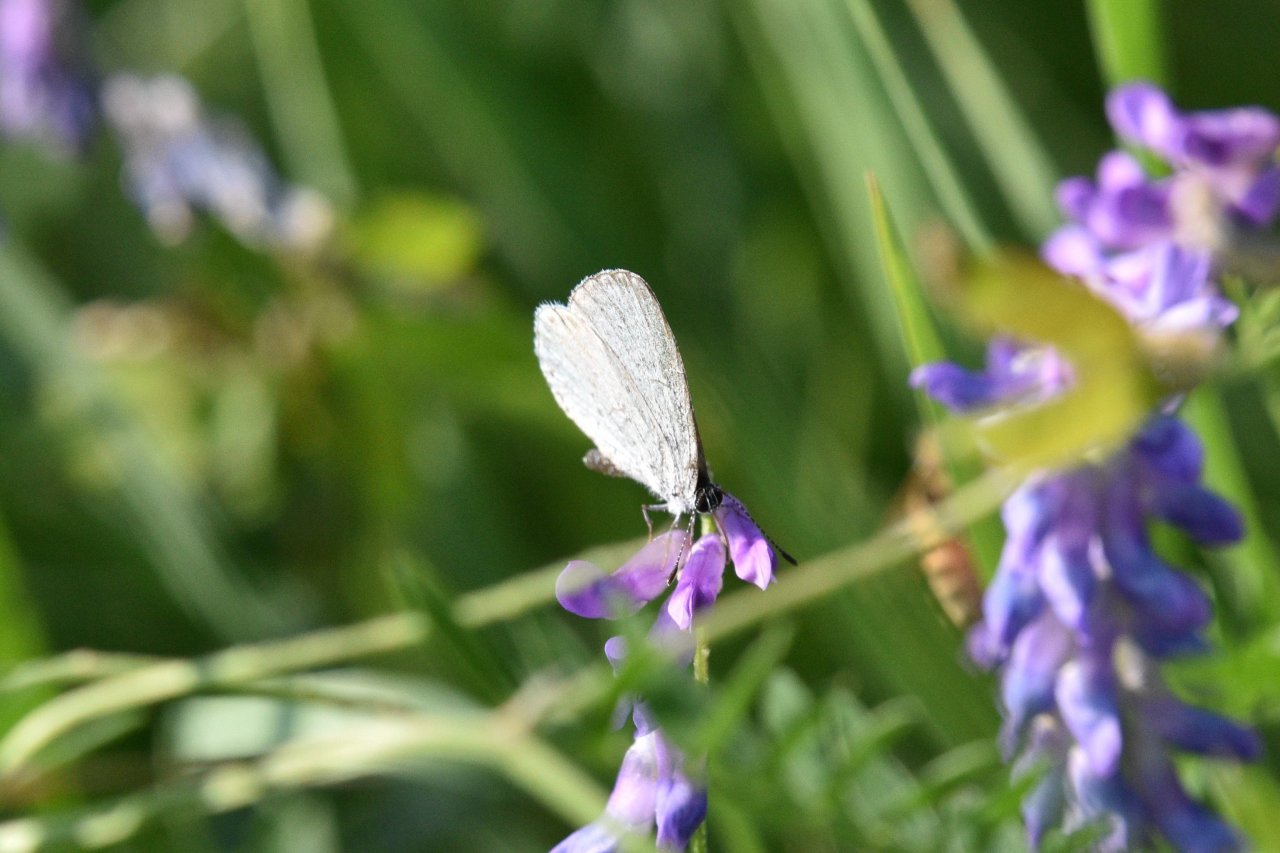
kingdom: Animalia
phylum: Arthropoda
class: Insecta
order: Lepidoptera
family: Lycaenidae
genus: Celastrina
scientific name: Celastrina lucia
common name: Northern Spring Azure
